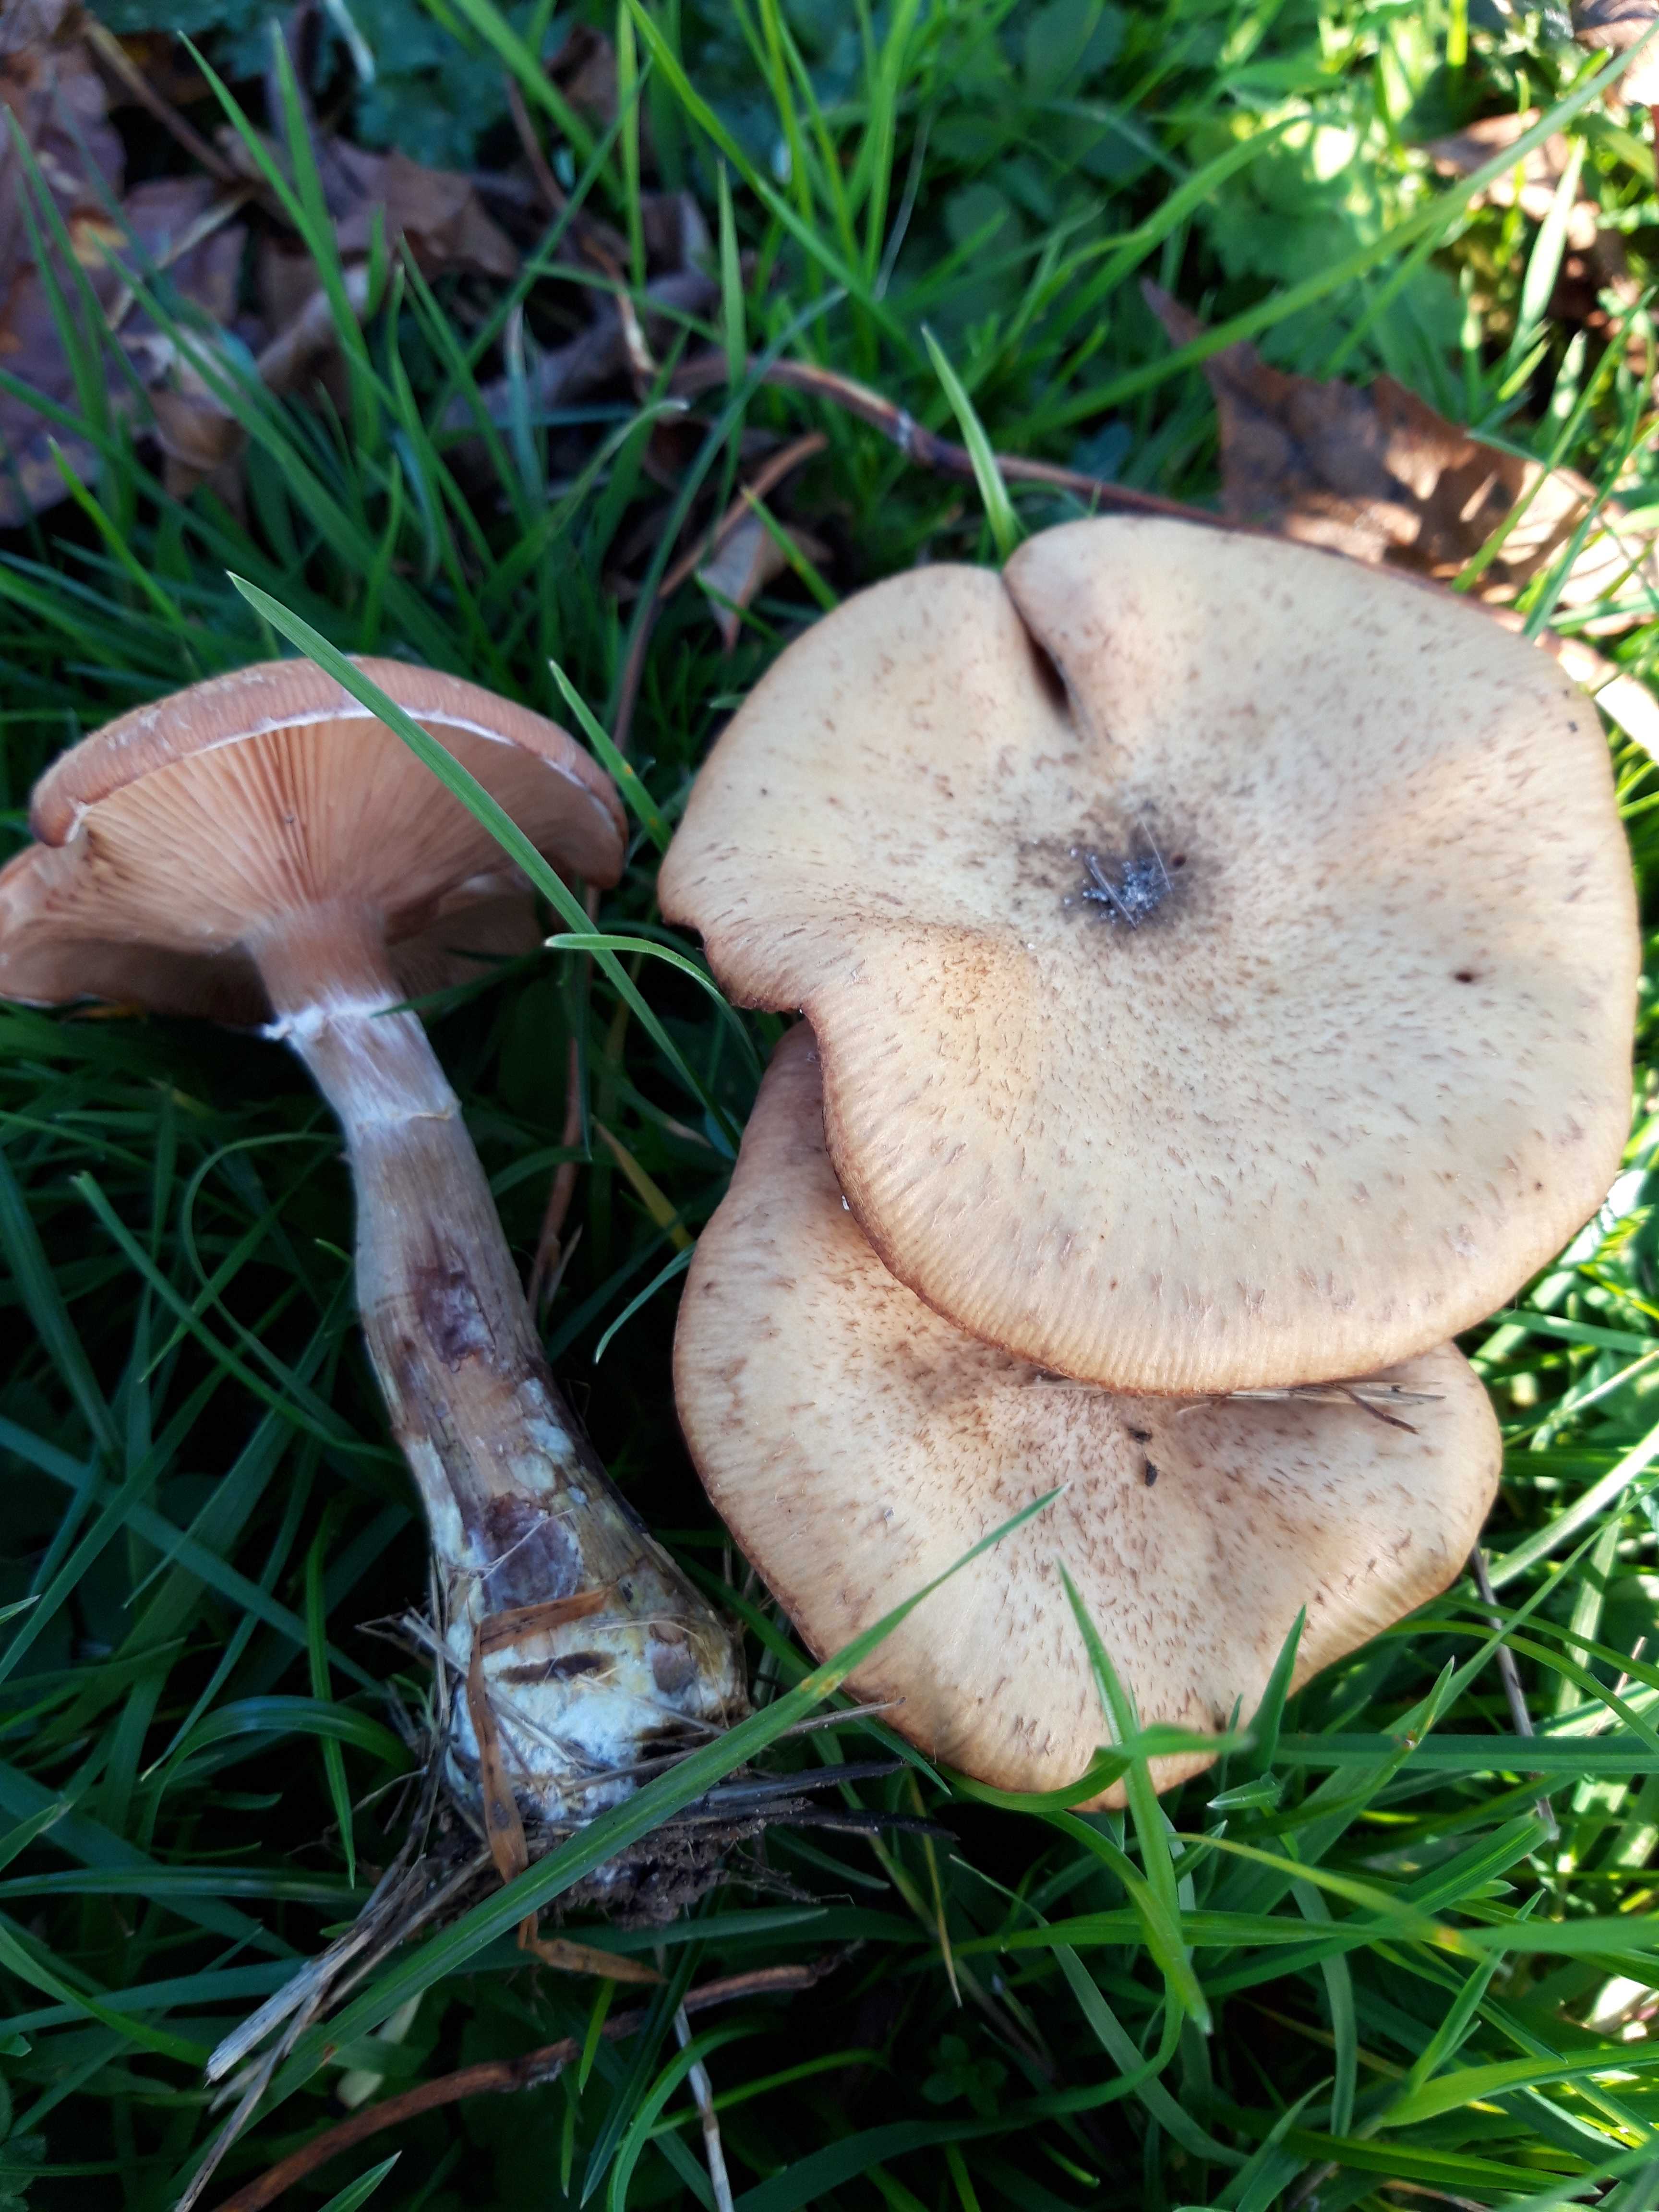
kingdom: Fungi
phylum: Basidiomycota
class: Agaricomycetes
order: Agaricales
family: Physalacriaceae
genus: Armillaria
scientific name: Armillaria lutea
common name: køllestokket honningsvamp
